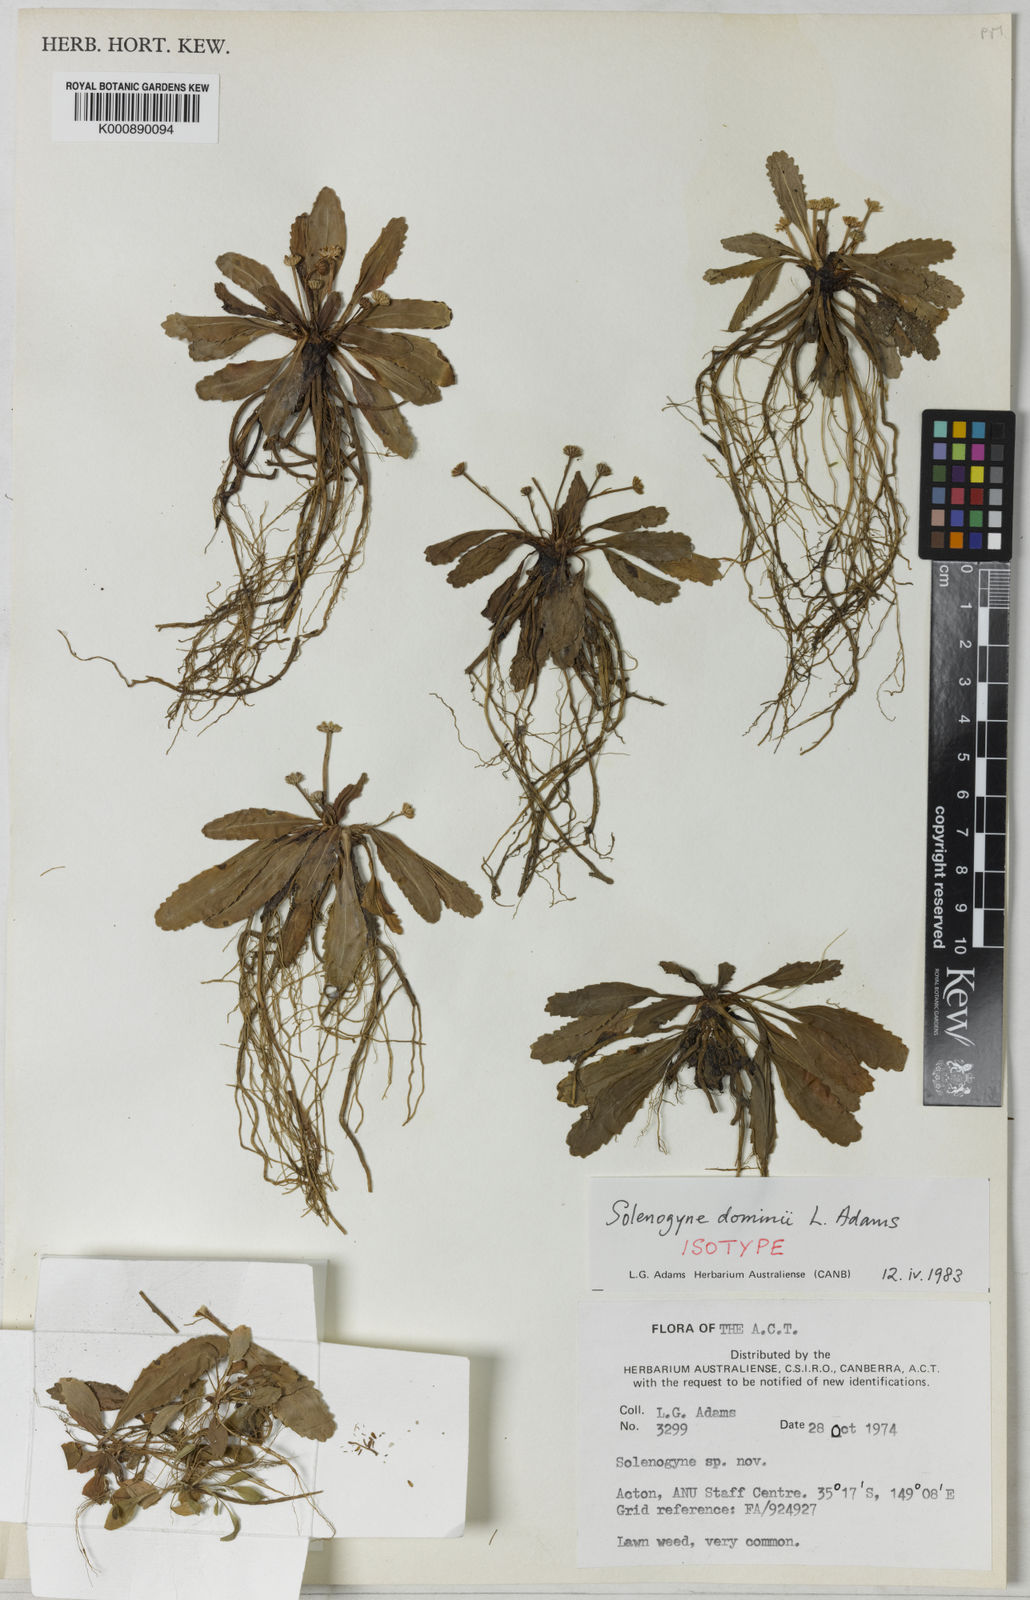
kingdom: Plantae
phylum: Tracheophyta
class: Magnoliopsida
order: Asterales
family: Asteraceae
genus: Solenogyne
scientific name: Solenogyne dominii
